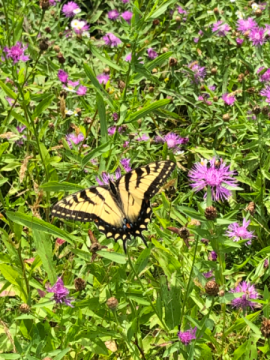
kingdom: Animalia
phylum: Arthropoda
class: Insecta
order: Lepidoptera
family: Papilionidae
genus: Pterourus
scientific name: Pterourus glaucus
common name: Eastern Tiger Swallowtail
